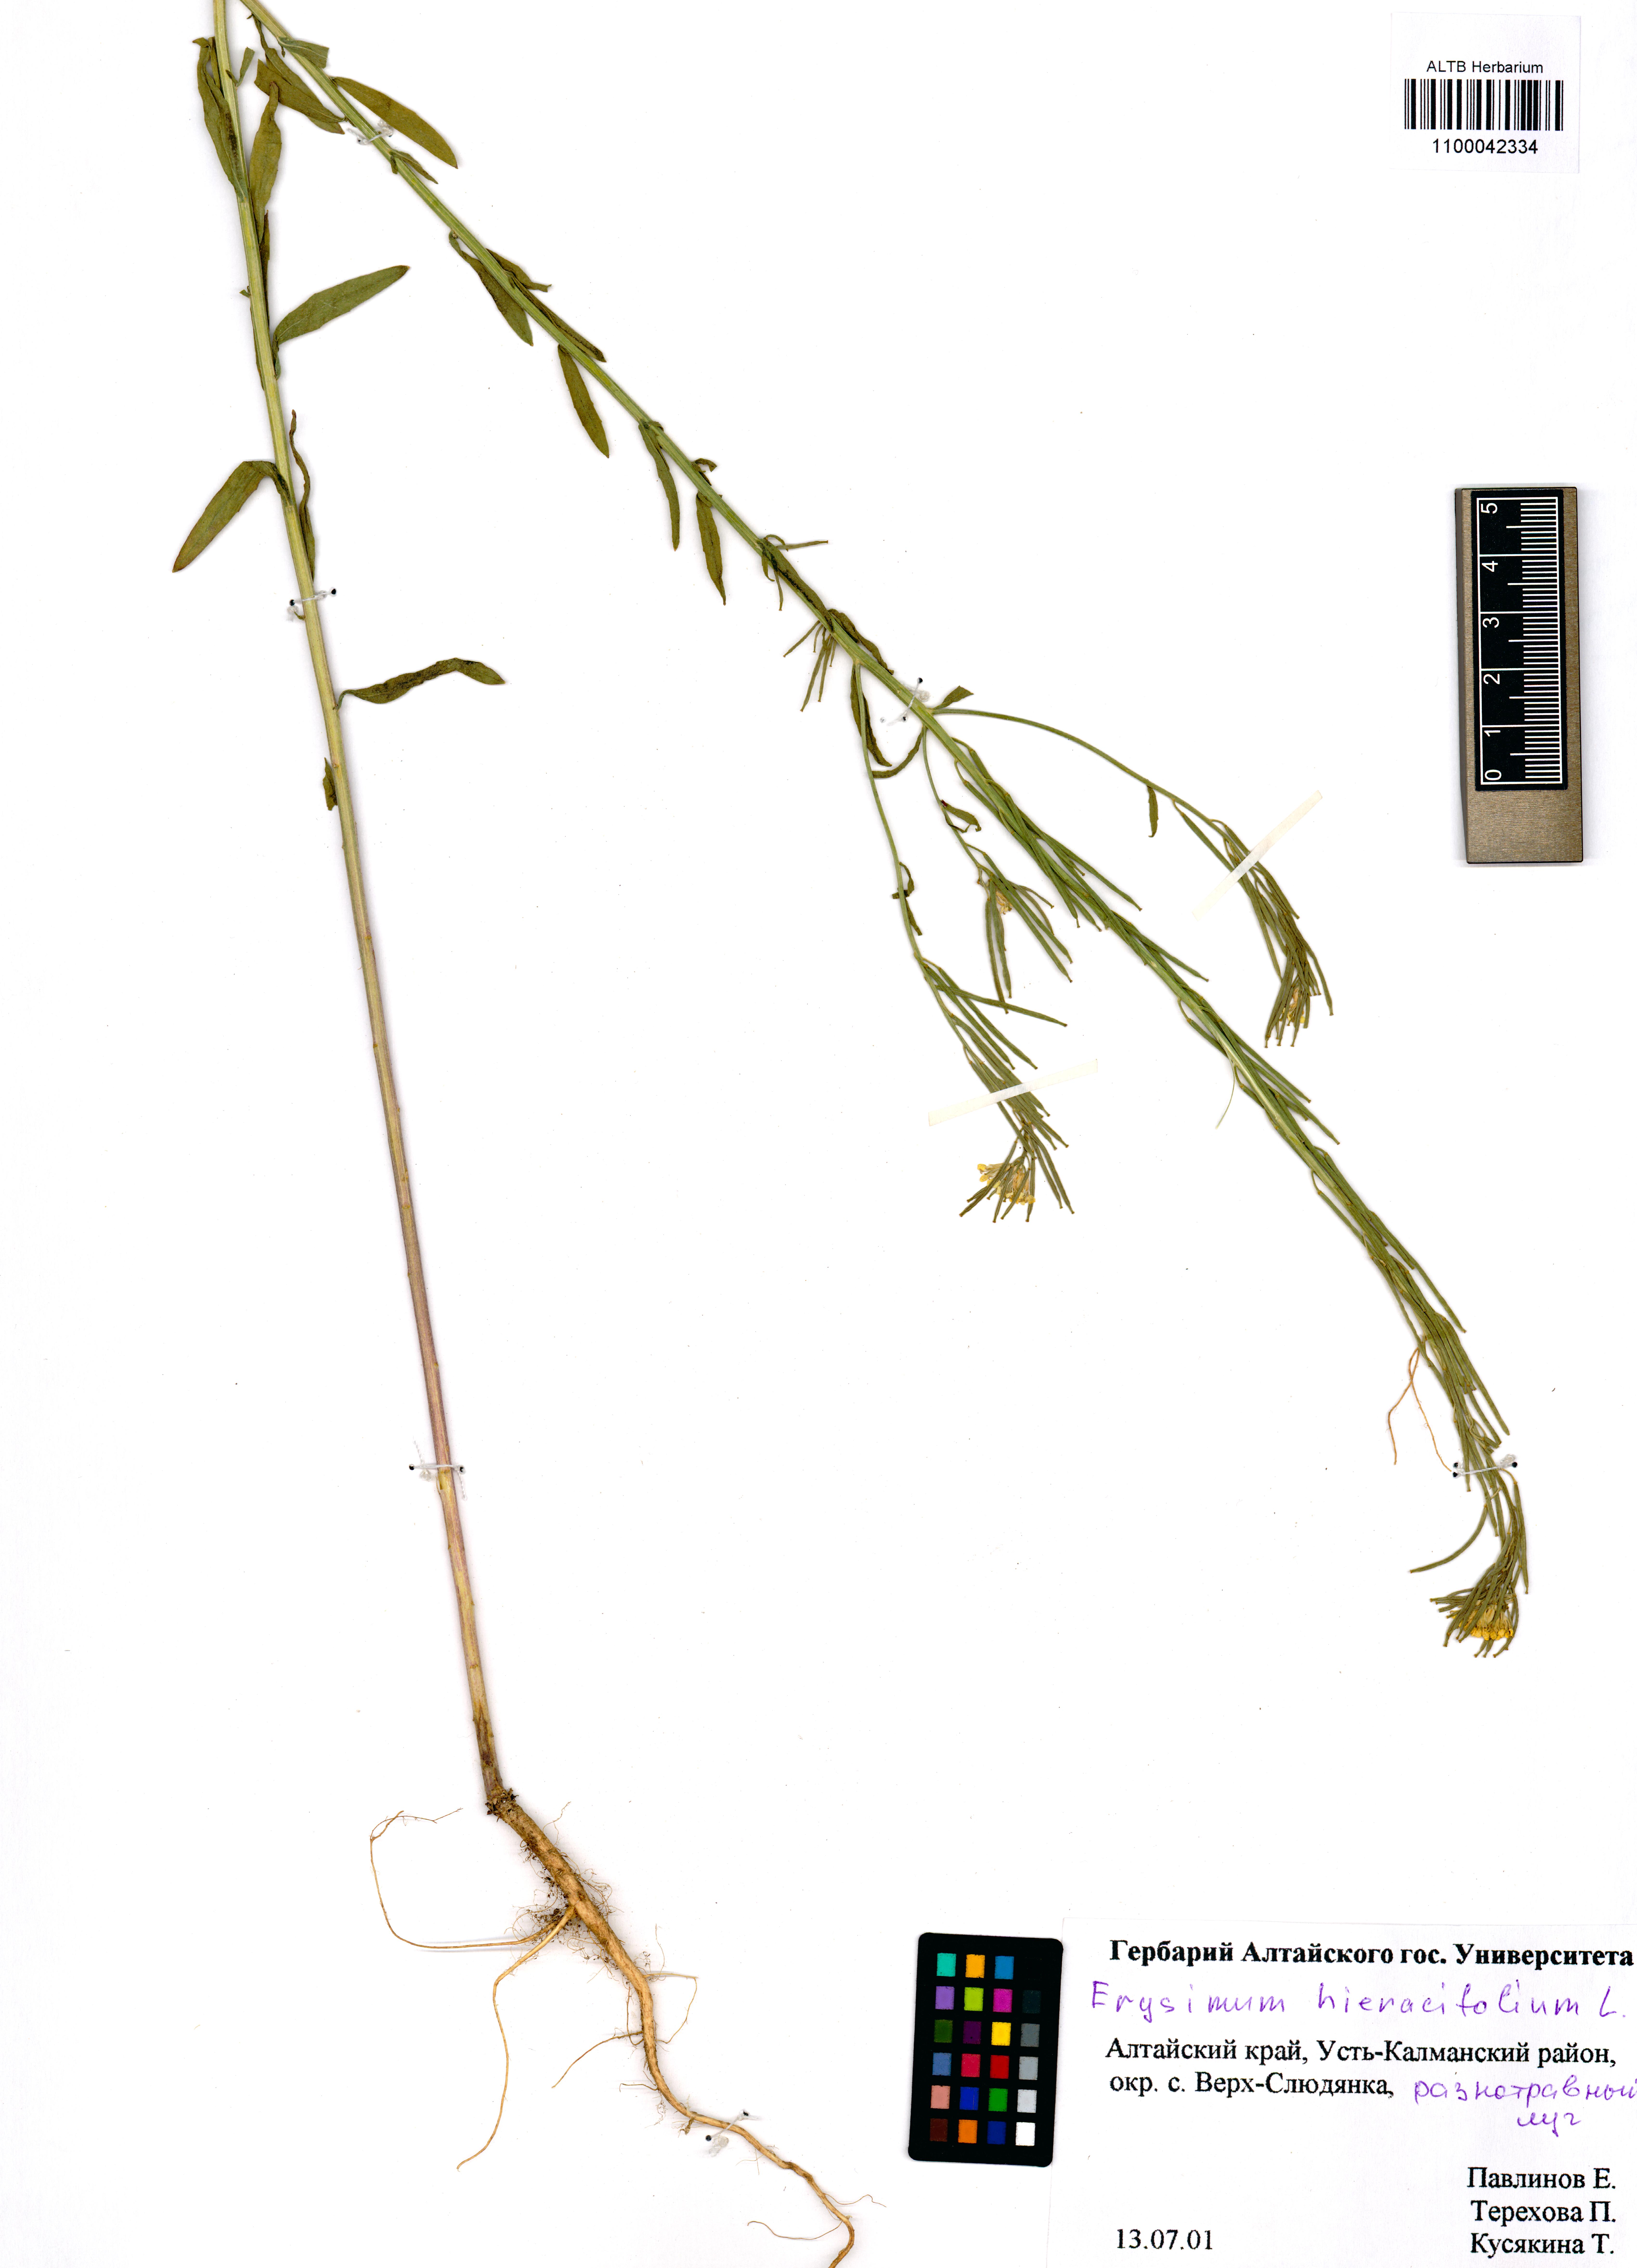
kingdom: Plantae
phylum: Tracheophyta
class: Magnoliopsida
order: Brassicales
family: Brassicaceae
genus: Erysimum
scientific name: Erysimum hieraciifolium
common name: European wallflower
